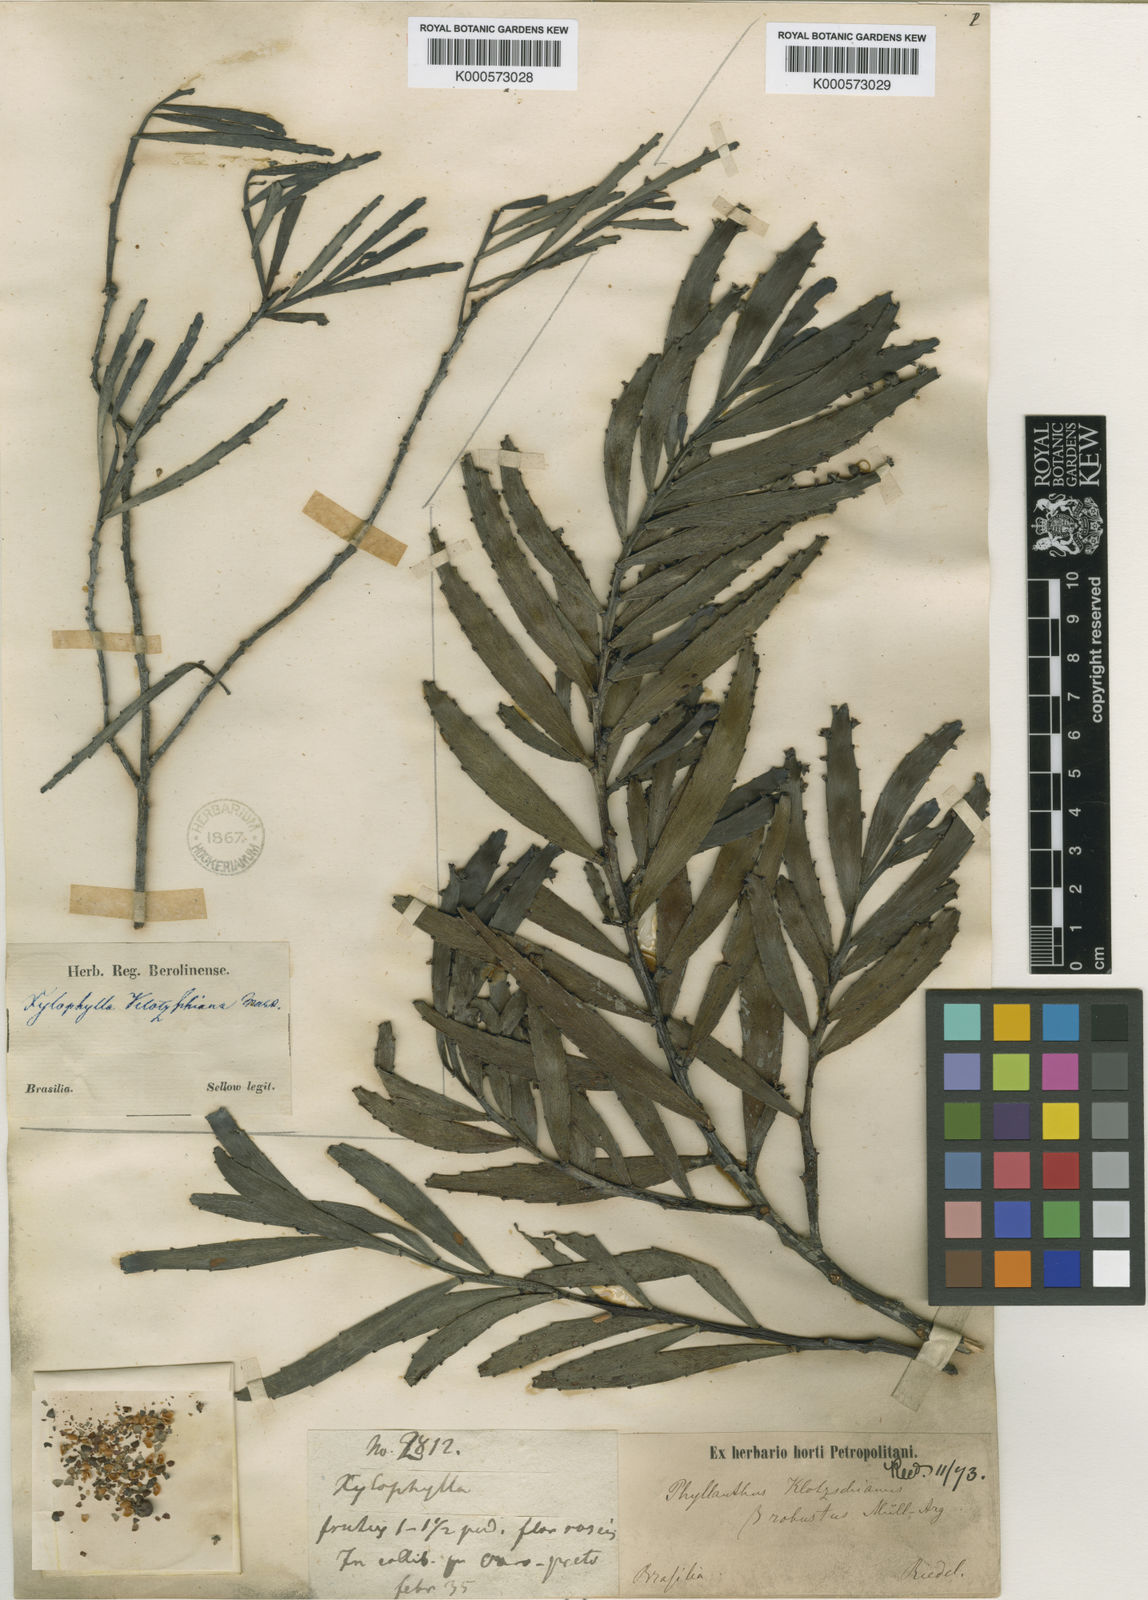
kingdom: Plantae
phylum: Tracheophyta
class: Magnoliopsida
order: Malpighiales
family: Phyllanthaceae
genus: Phyllanthus
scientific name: Phyllanthus
